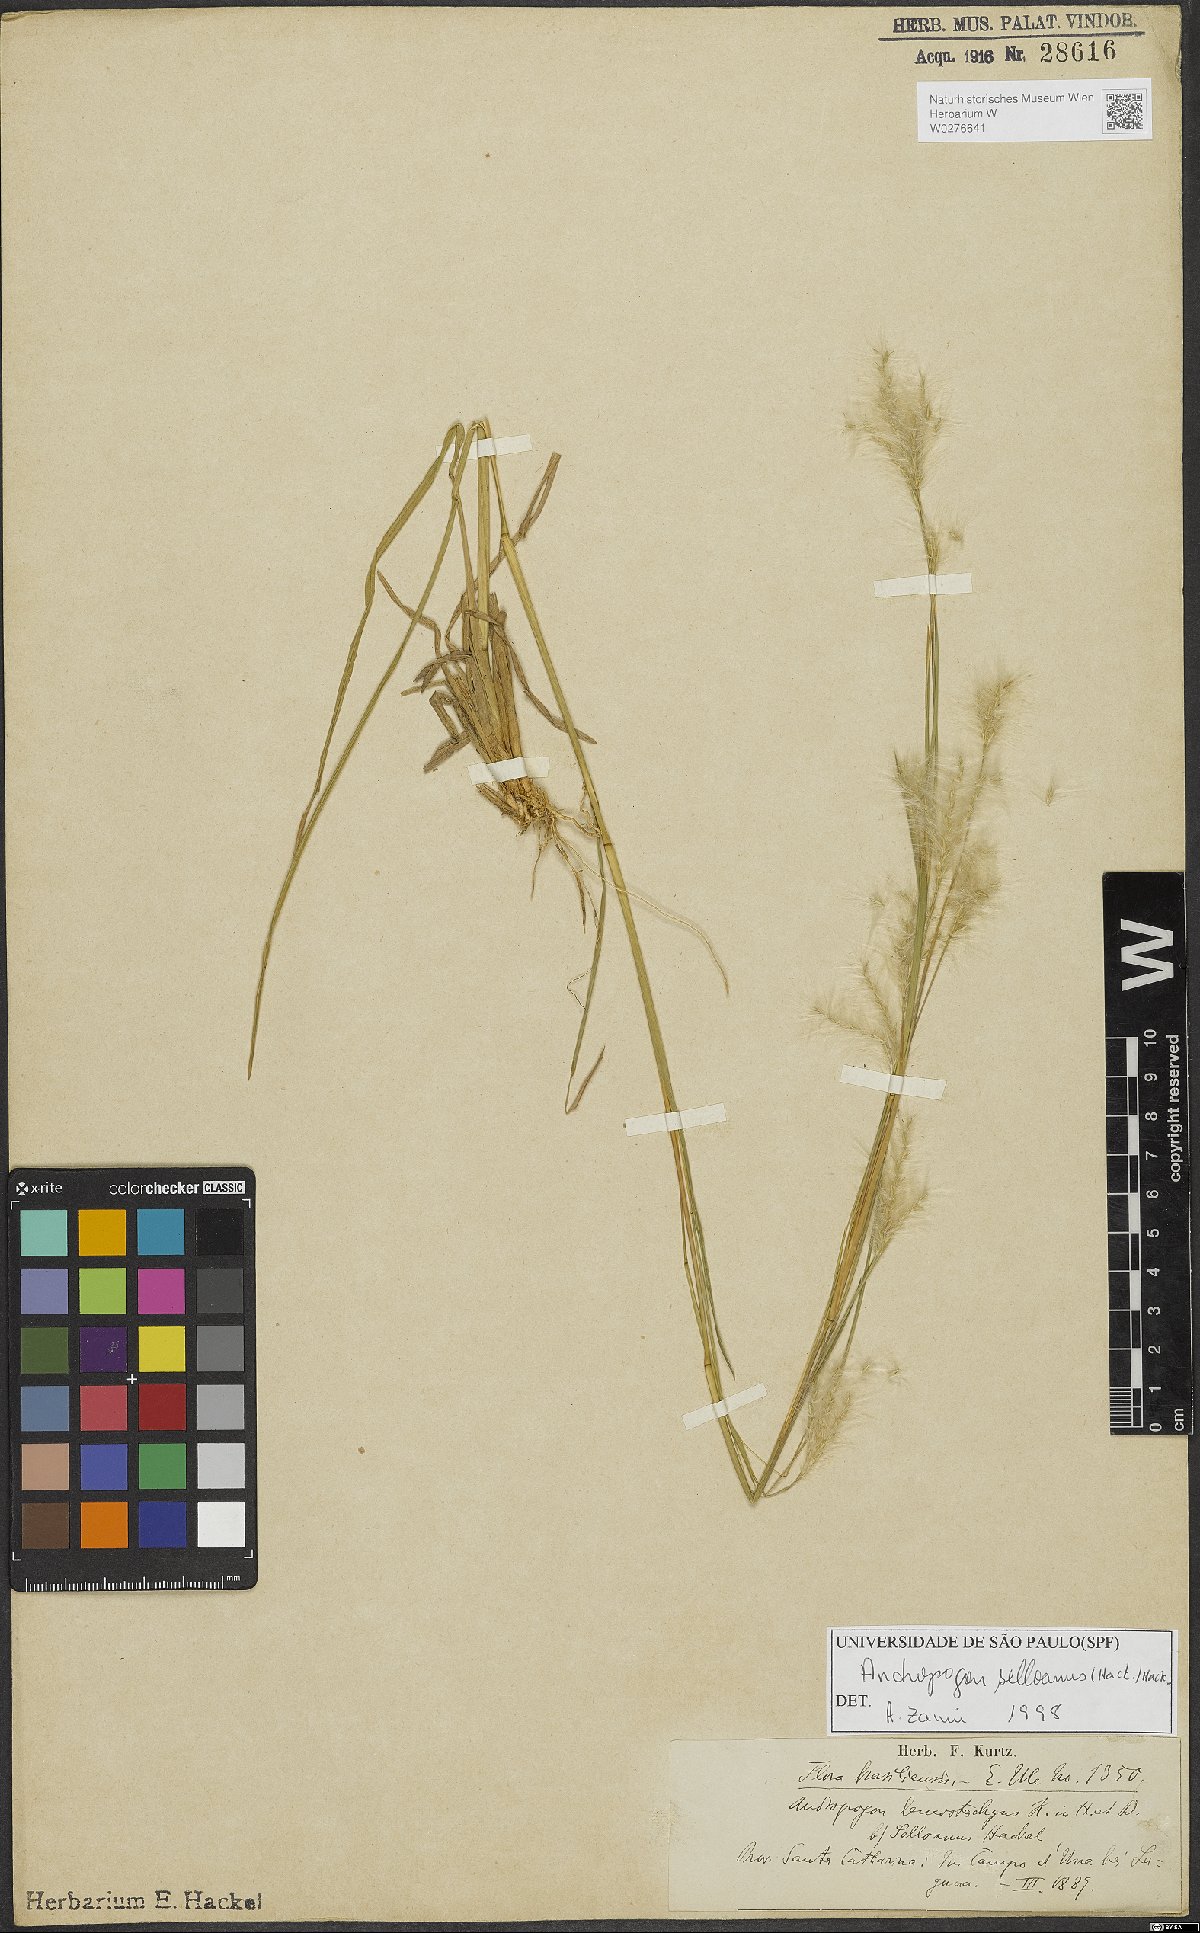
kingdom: Plantae
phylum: Tracheophyta
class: Liliopsida
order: Poales
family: Poaceae
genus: Andropogon
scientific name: Andropogon selloanus
